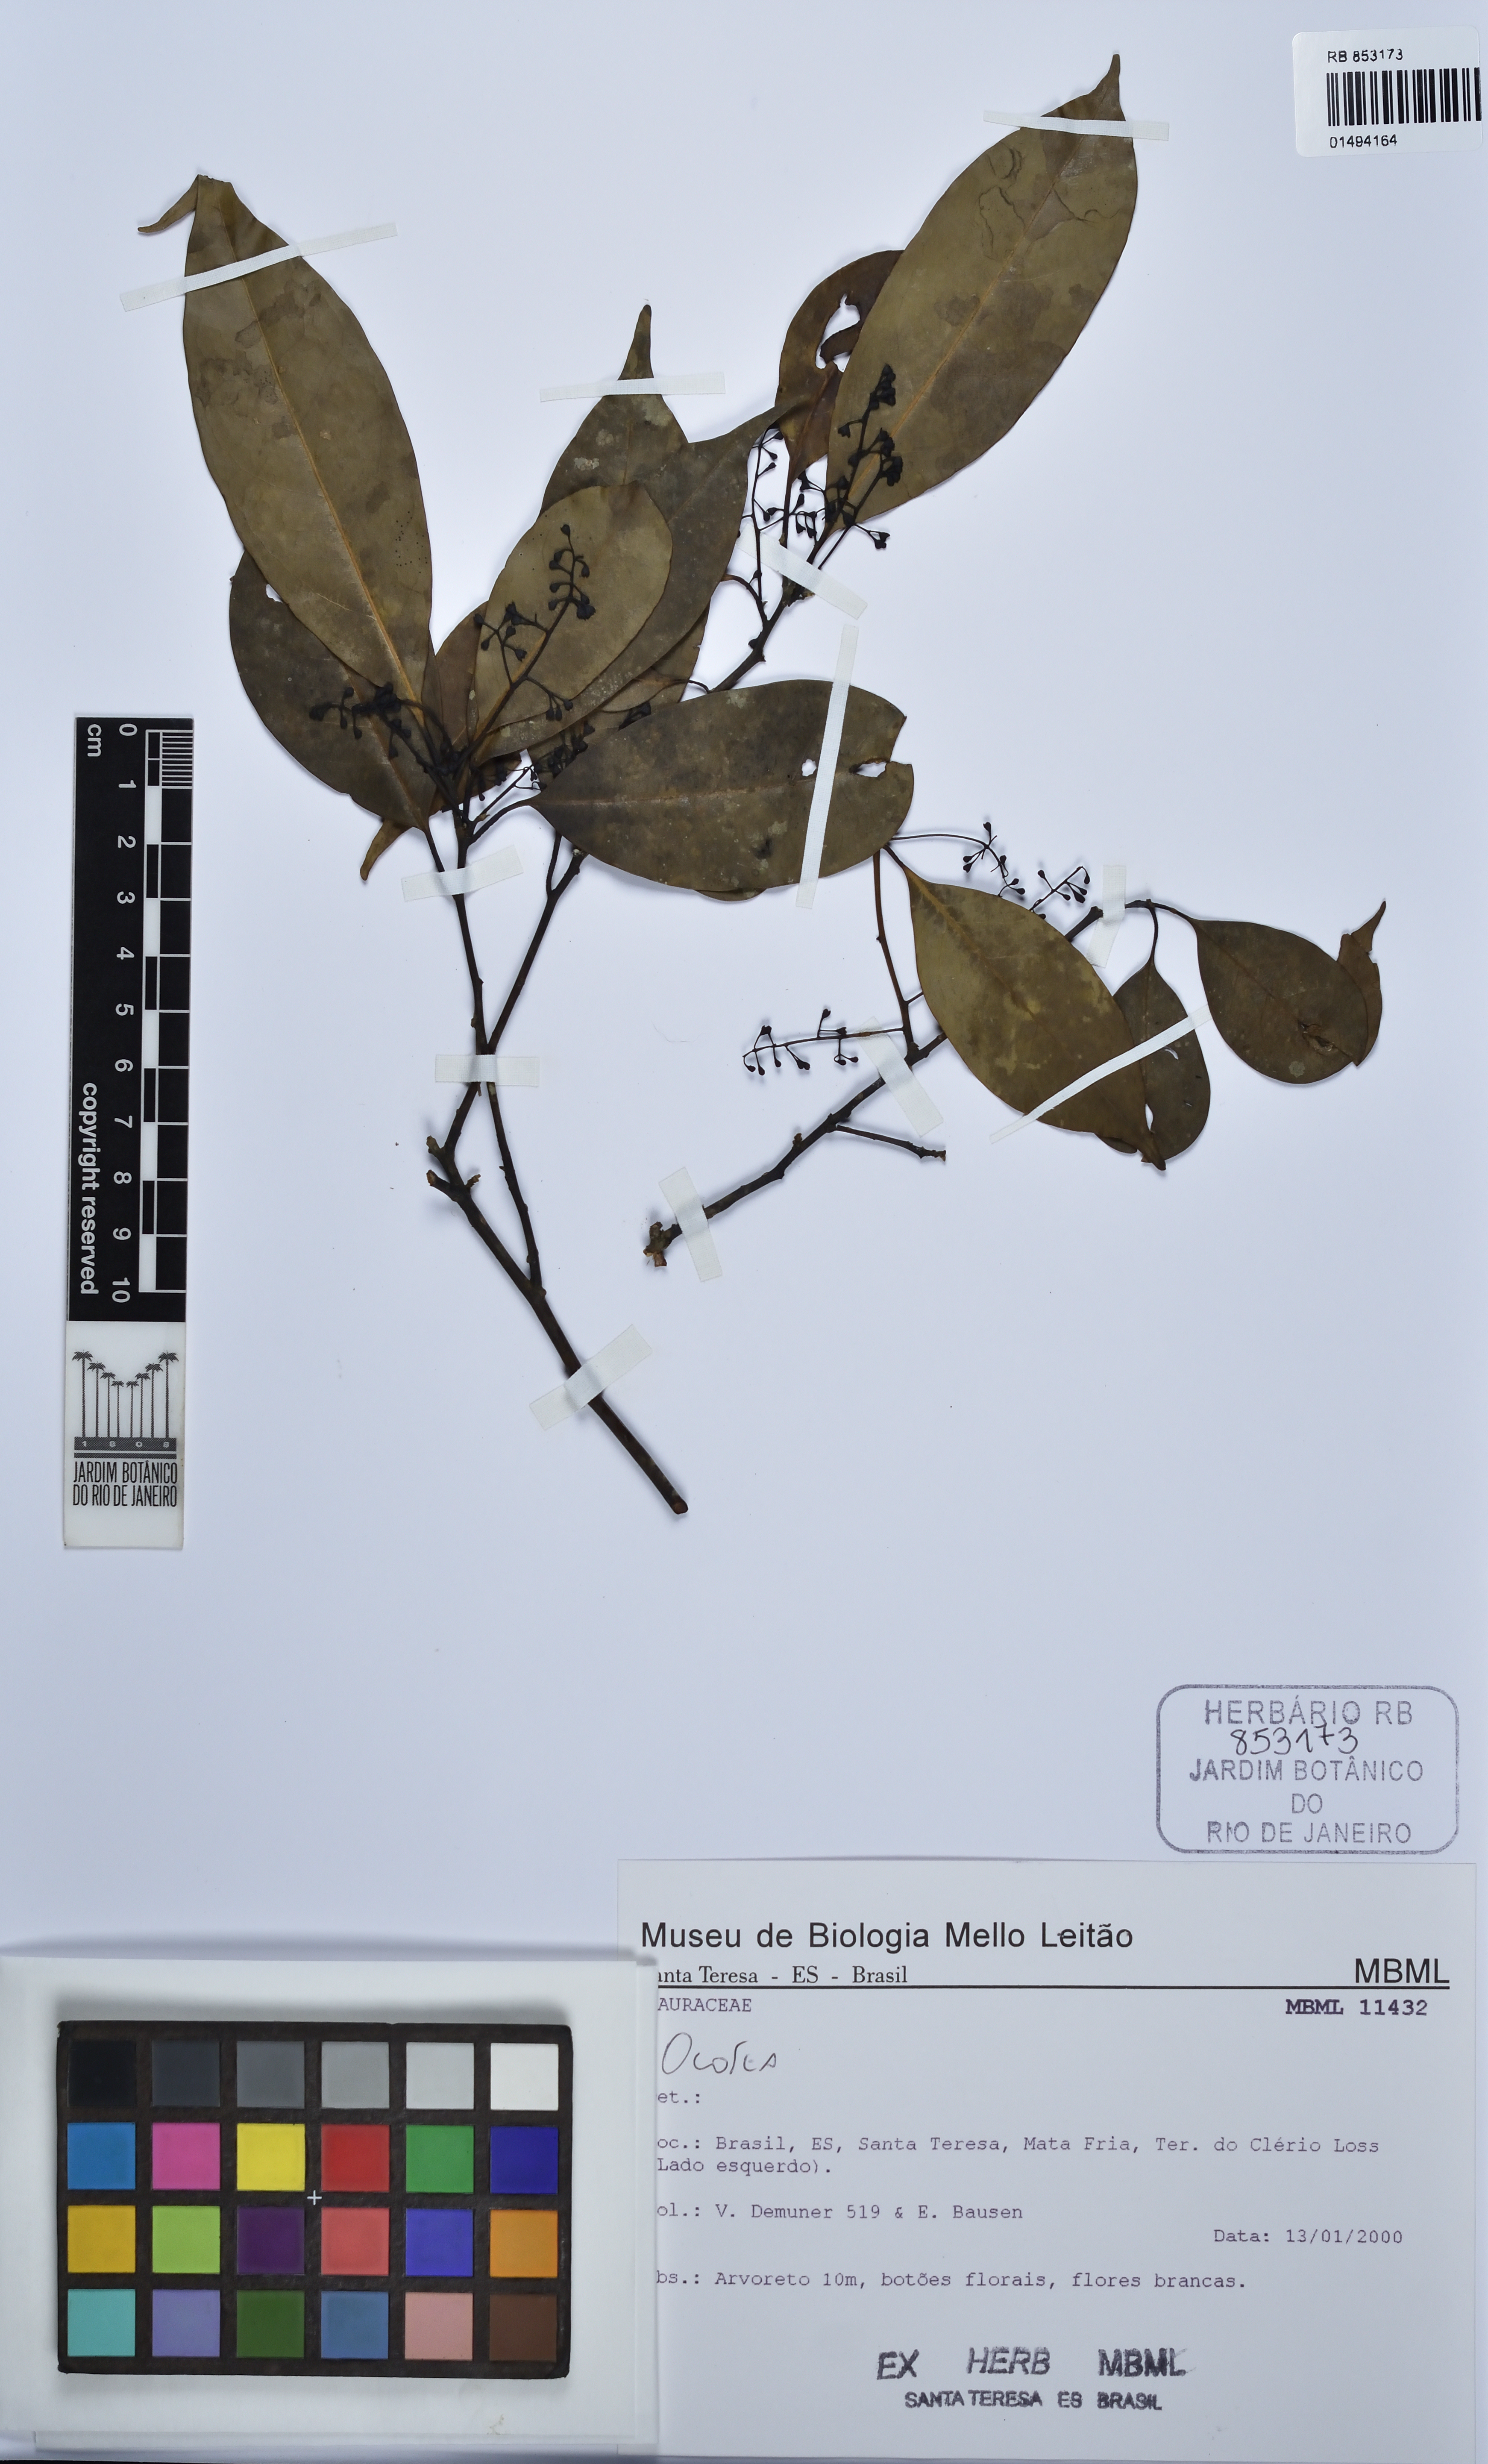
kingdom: Plantae
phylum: Tracheophyta
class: Magnoliopsida
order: Laurales
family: Lauraceae
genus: Ocotea
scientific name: Ocotea
